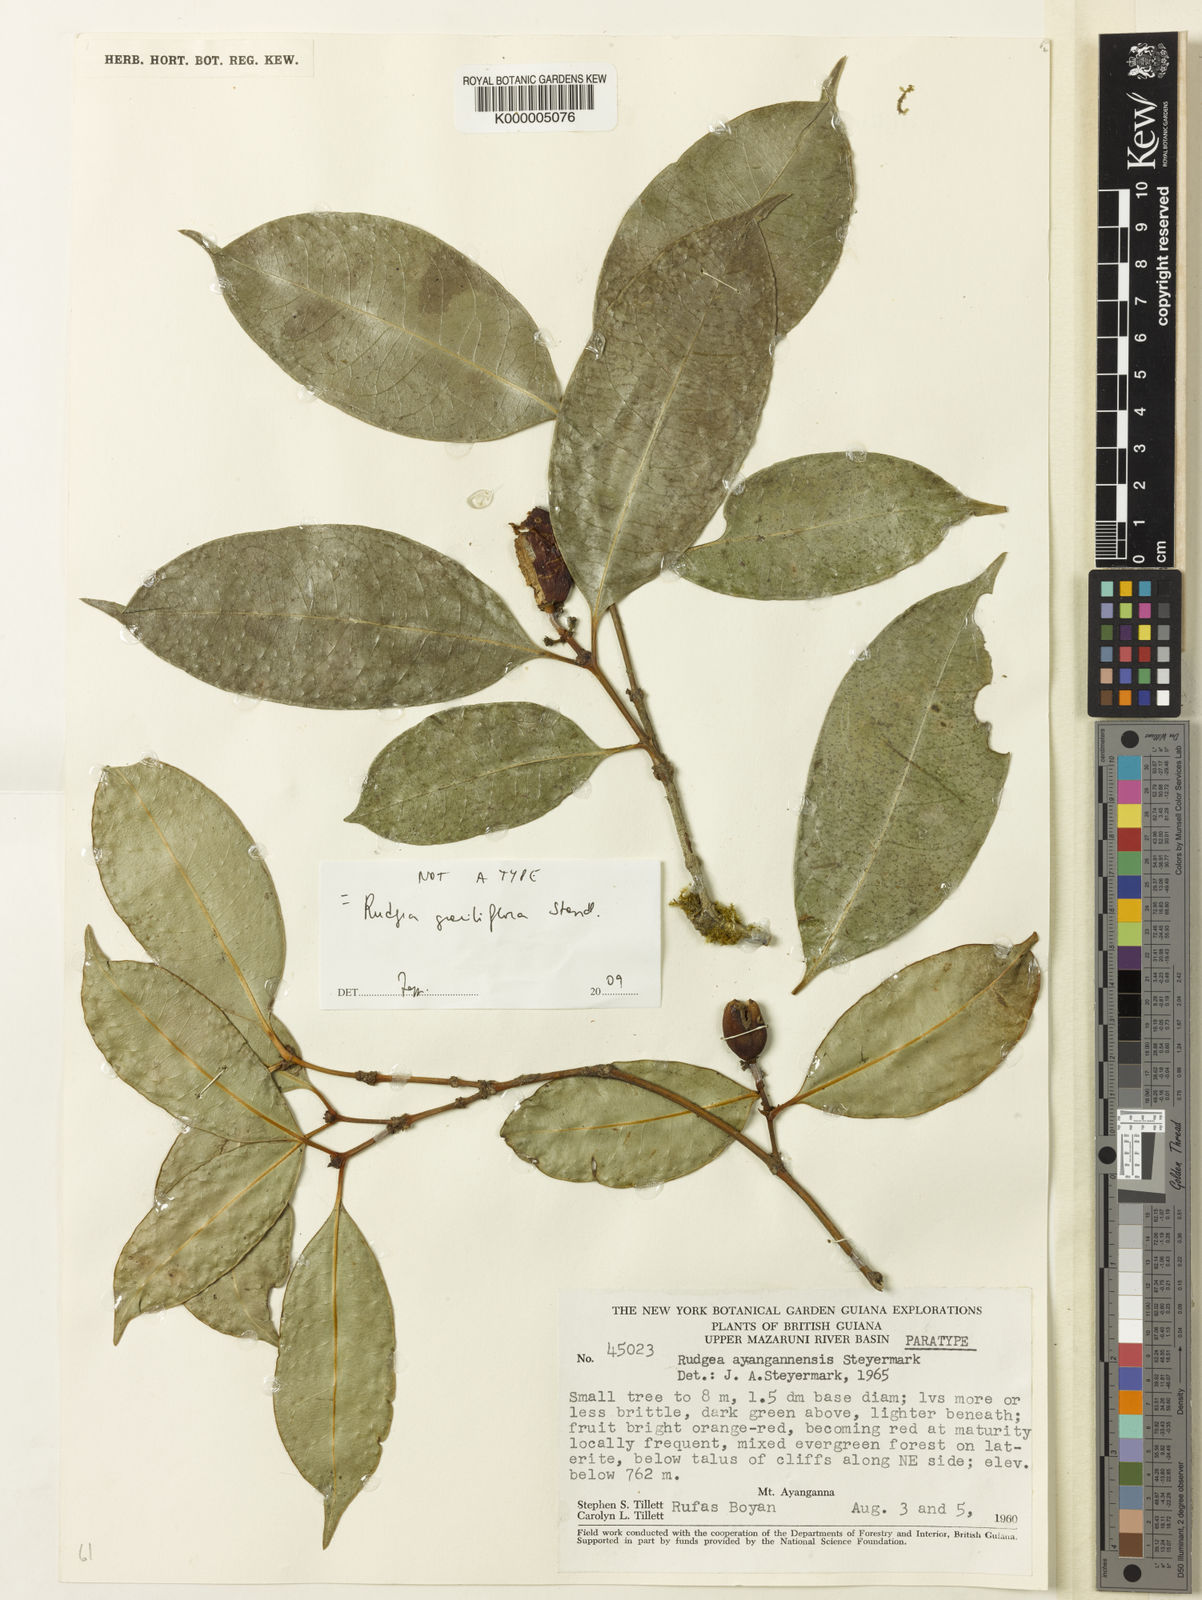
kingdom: Plantae
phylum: Tracheophyta
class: Magnoliopsida
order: Gentianales
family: Rubiaceae
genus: Rudgea
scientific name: Rudgea graciliflora
